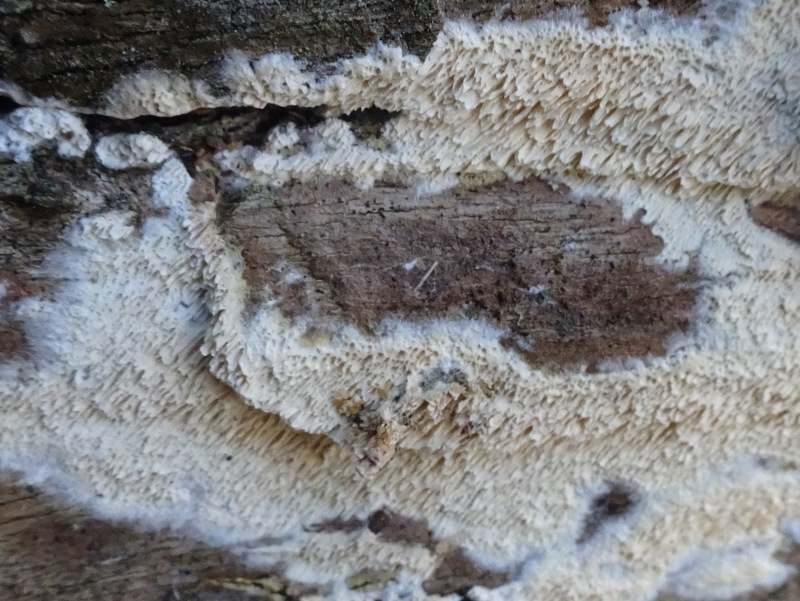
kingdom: Fungi
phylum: Basidiomycota
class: Agaricomycetes
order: Polyporales
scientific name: Polyporales
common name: poresvampordenen
